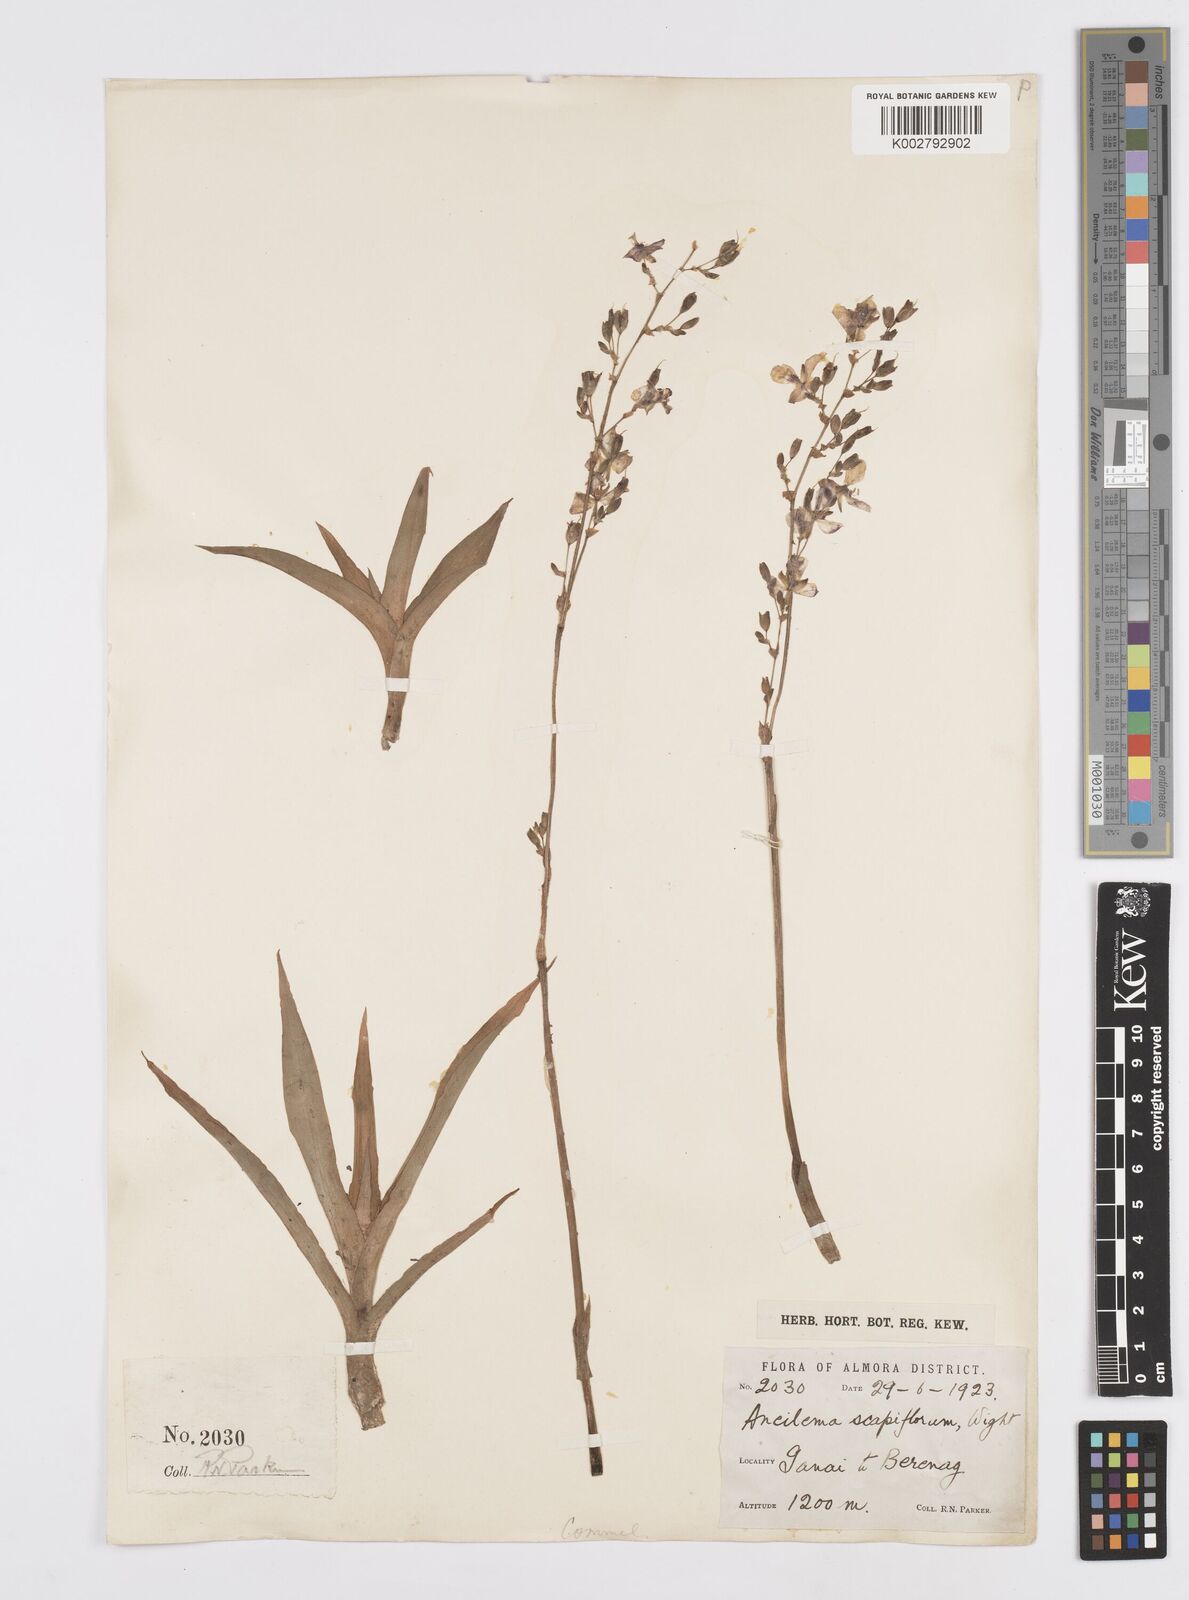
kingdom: Plantae
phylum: Tracheophyta
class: Liliopsida
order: Commelinales
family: Commelinaceae
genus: Murdannia
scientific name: Murdannia edulis
